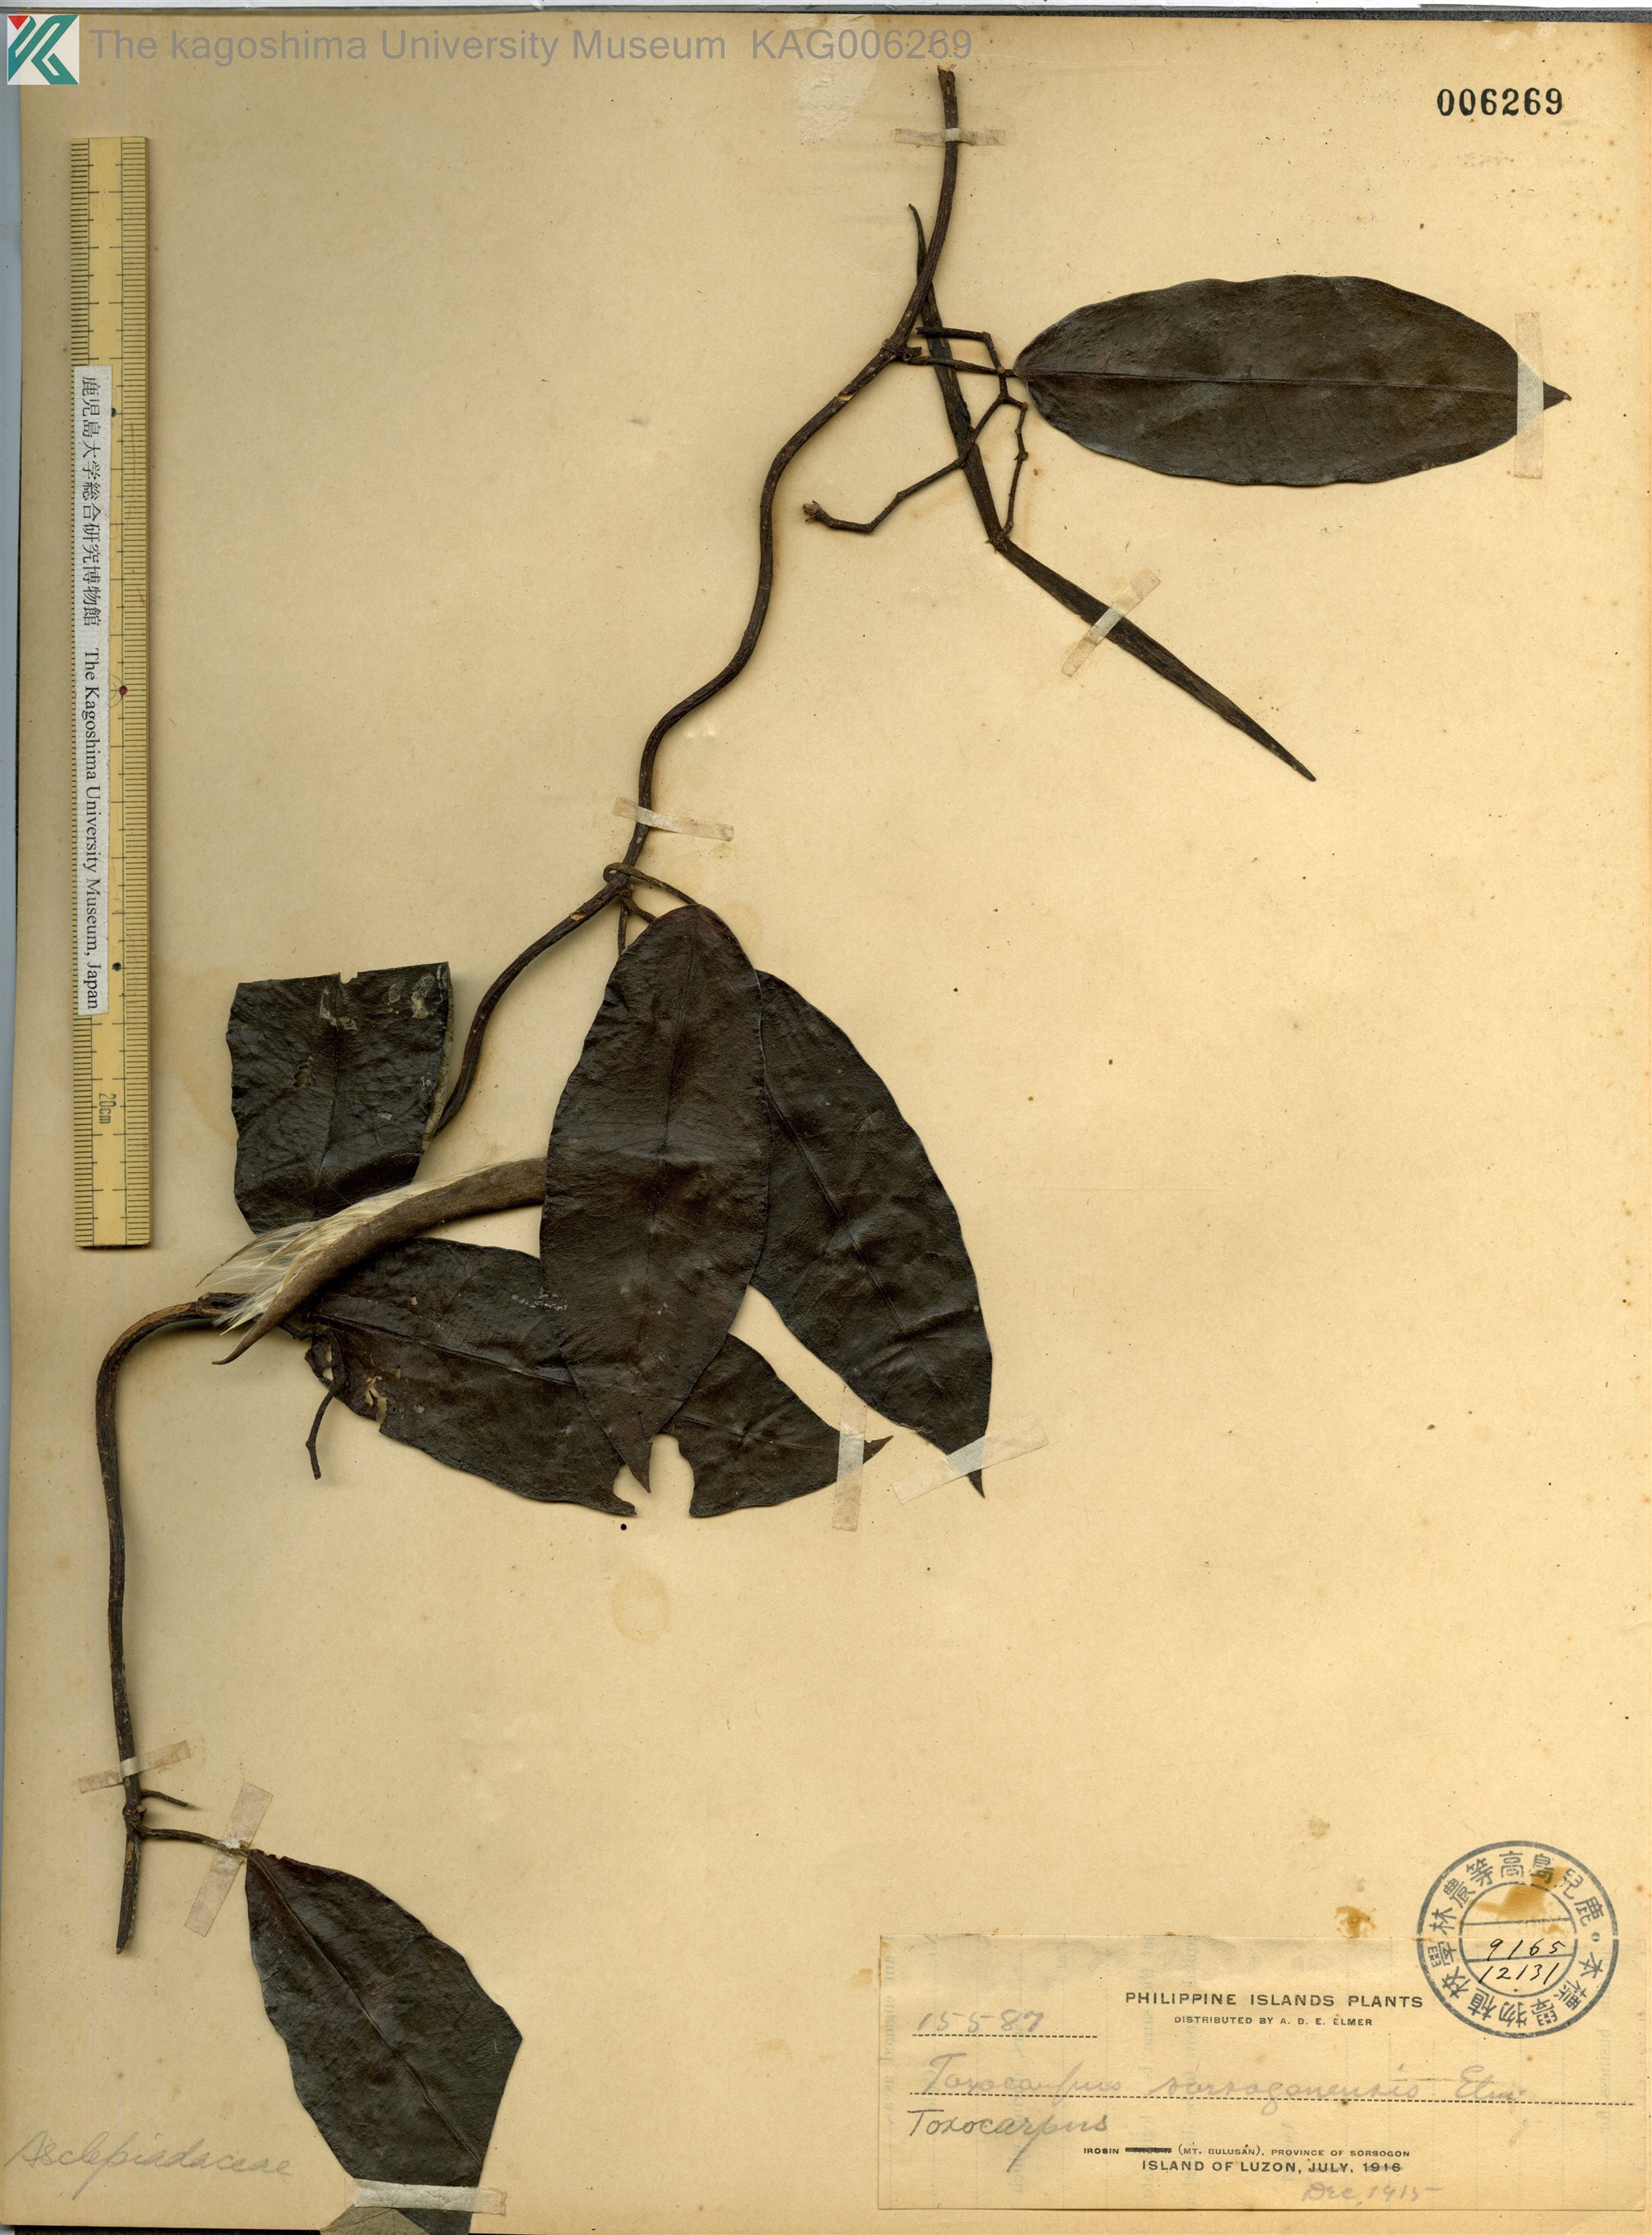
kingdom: Plantae
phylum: Tracheophyta
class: Magnoliopsida
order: Gentianales
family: Apocynaceae
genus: Toxocarpus
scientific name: Toxocarpus
